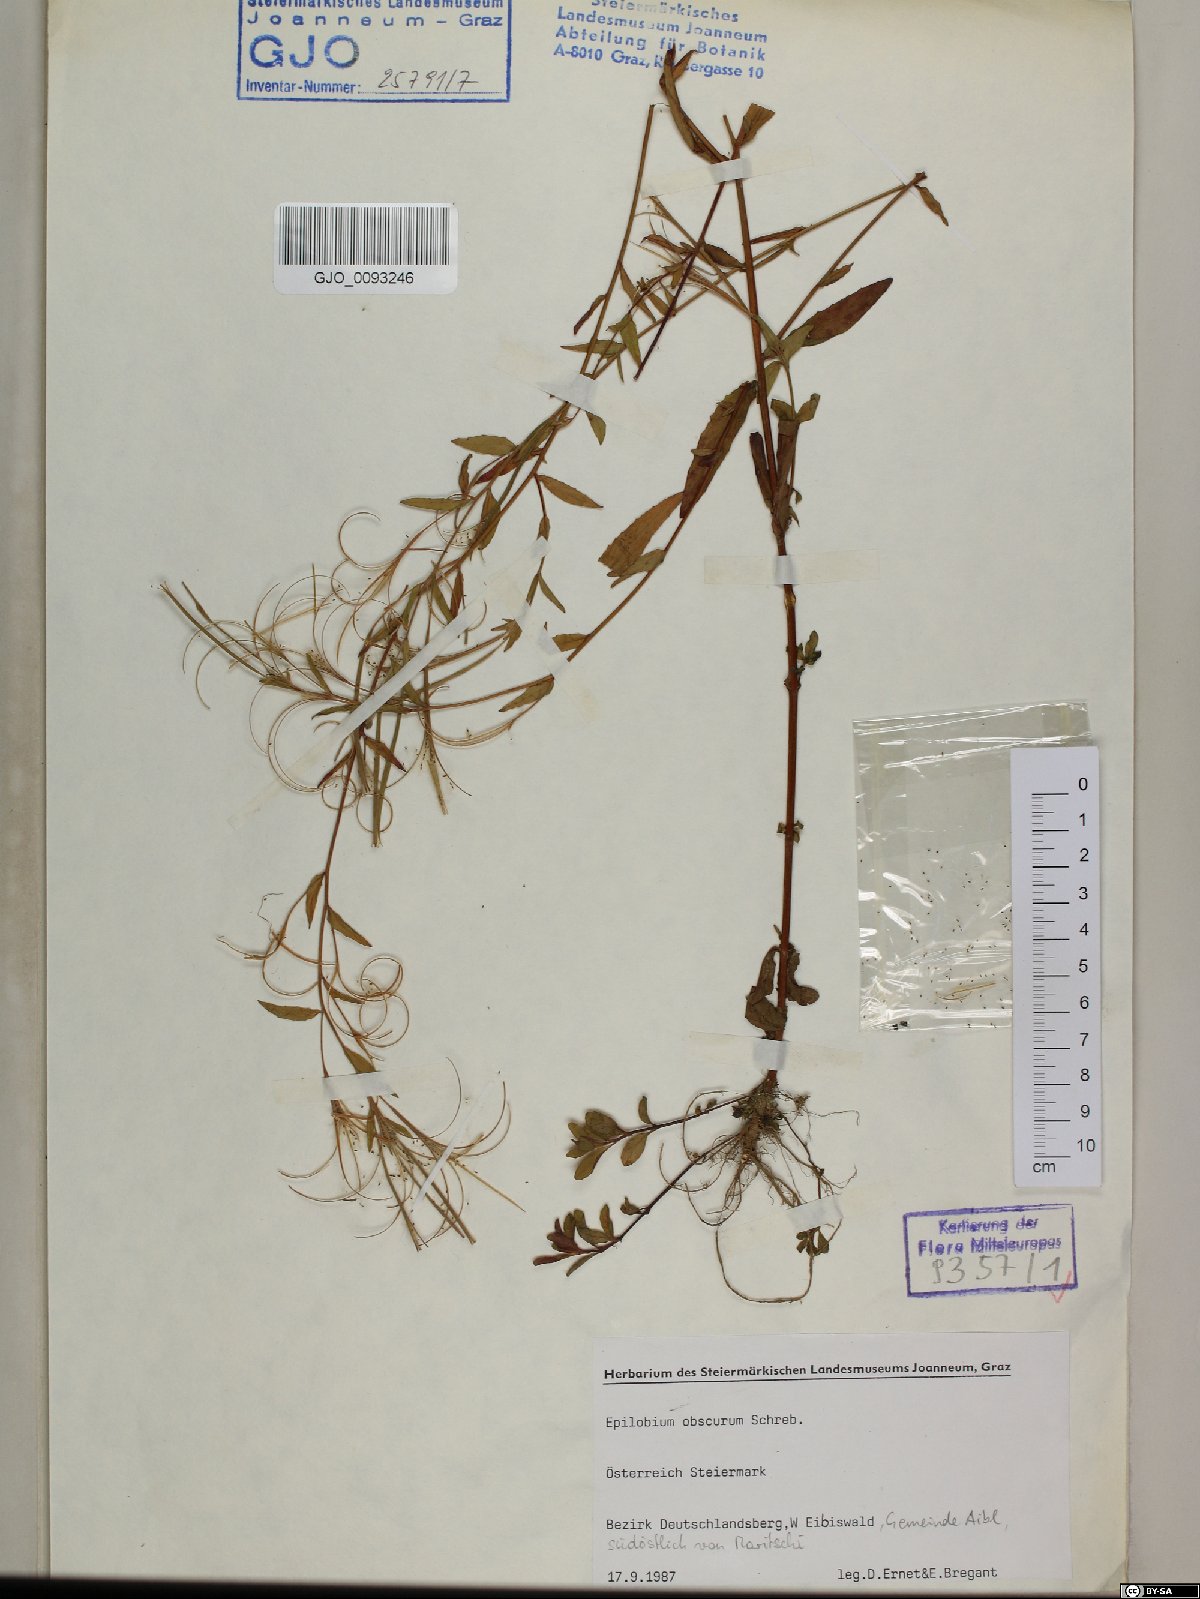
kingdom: Plantae
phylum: Tracheophyta
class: Magnoliopsida
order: Myrtales
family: Onagraceae
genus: Epilobium
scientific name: Epilobium obscurum
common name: Short-fruited willowherb
